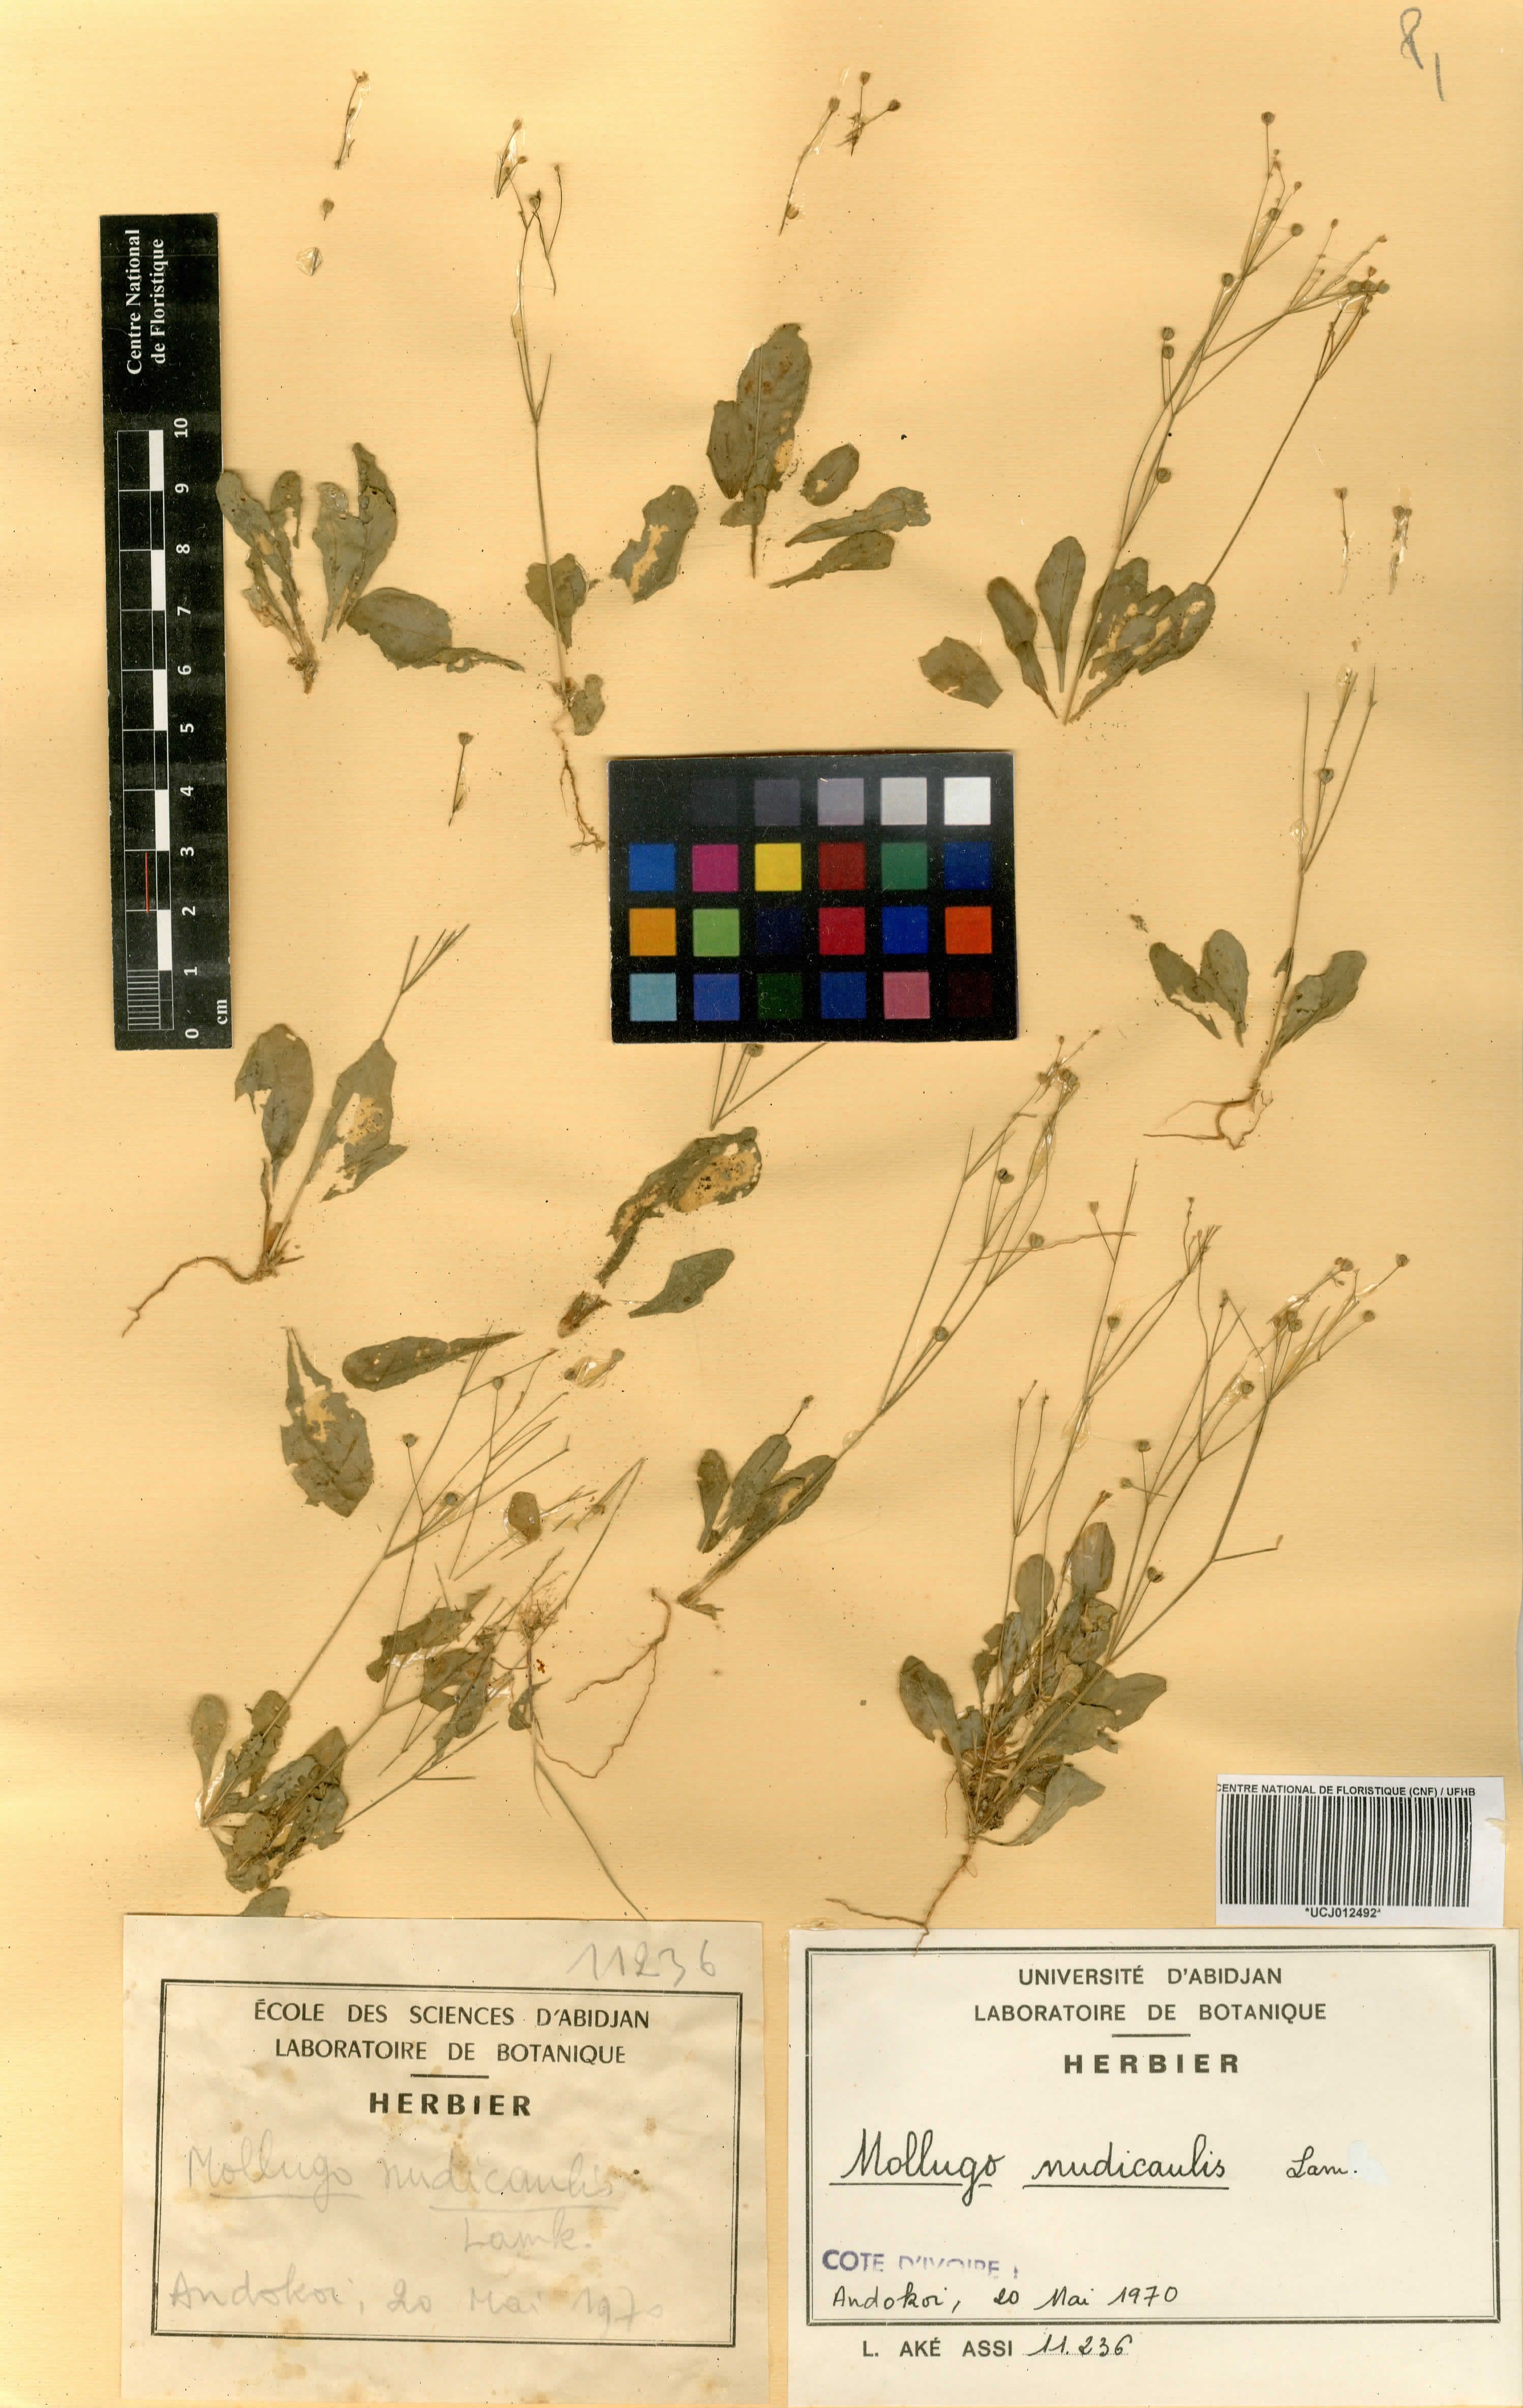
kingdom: Plantae
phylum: Tracheophyta
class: Magnoliopsida
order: Caryophyllales
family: Molluginaceae
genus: Paramollugo
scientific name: Paramollugo nudicaulis
